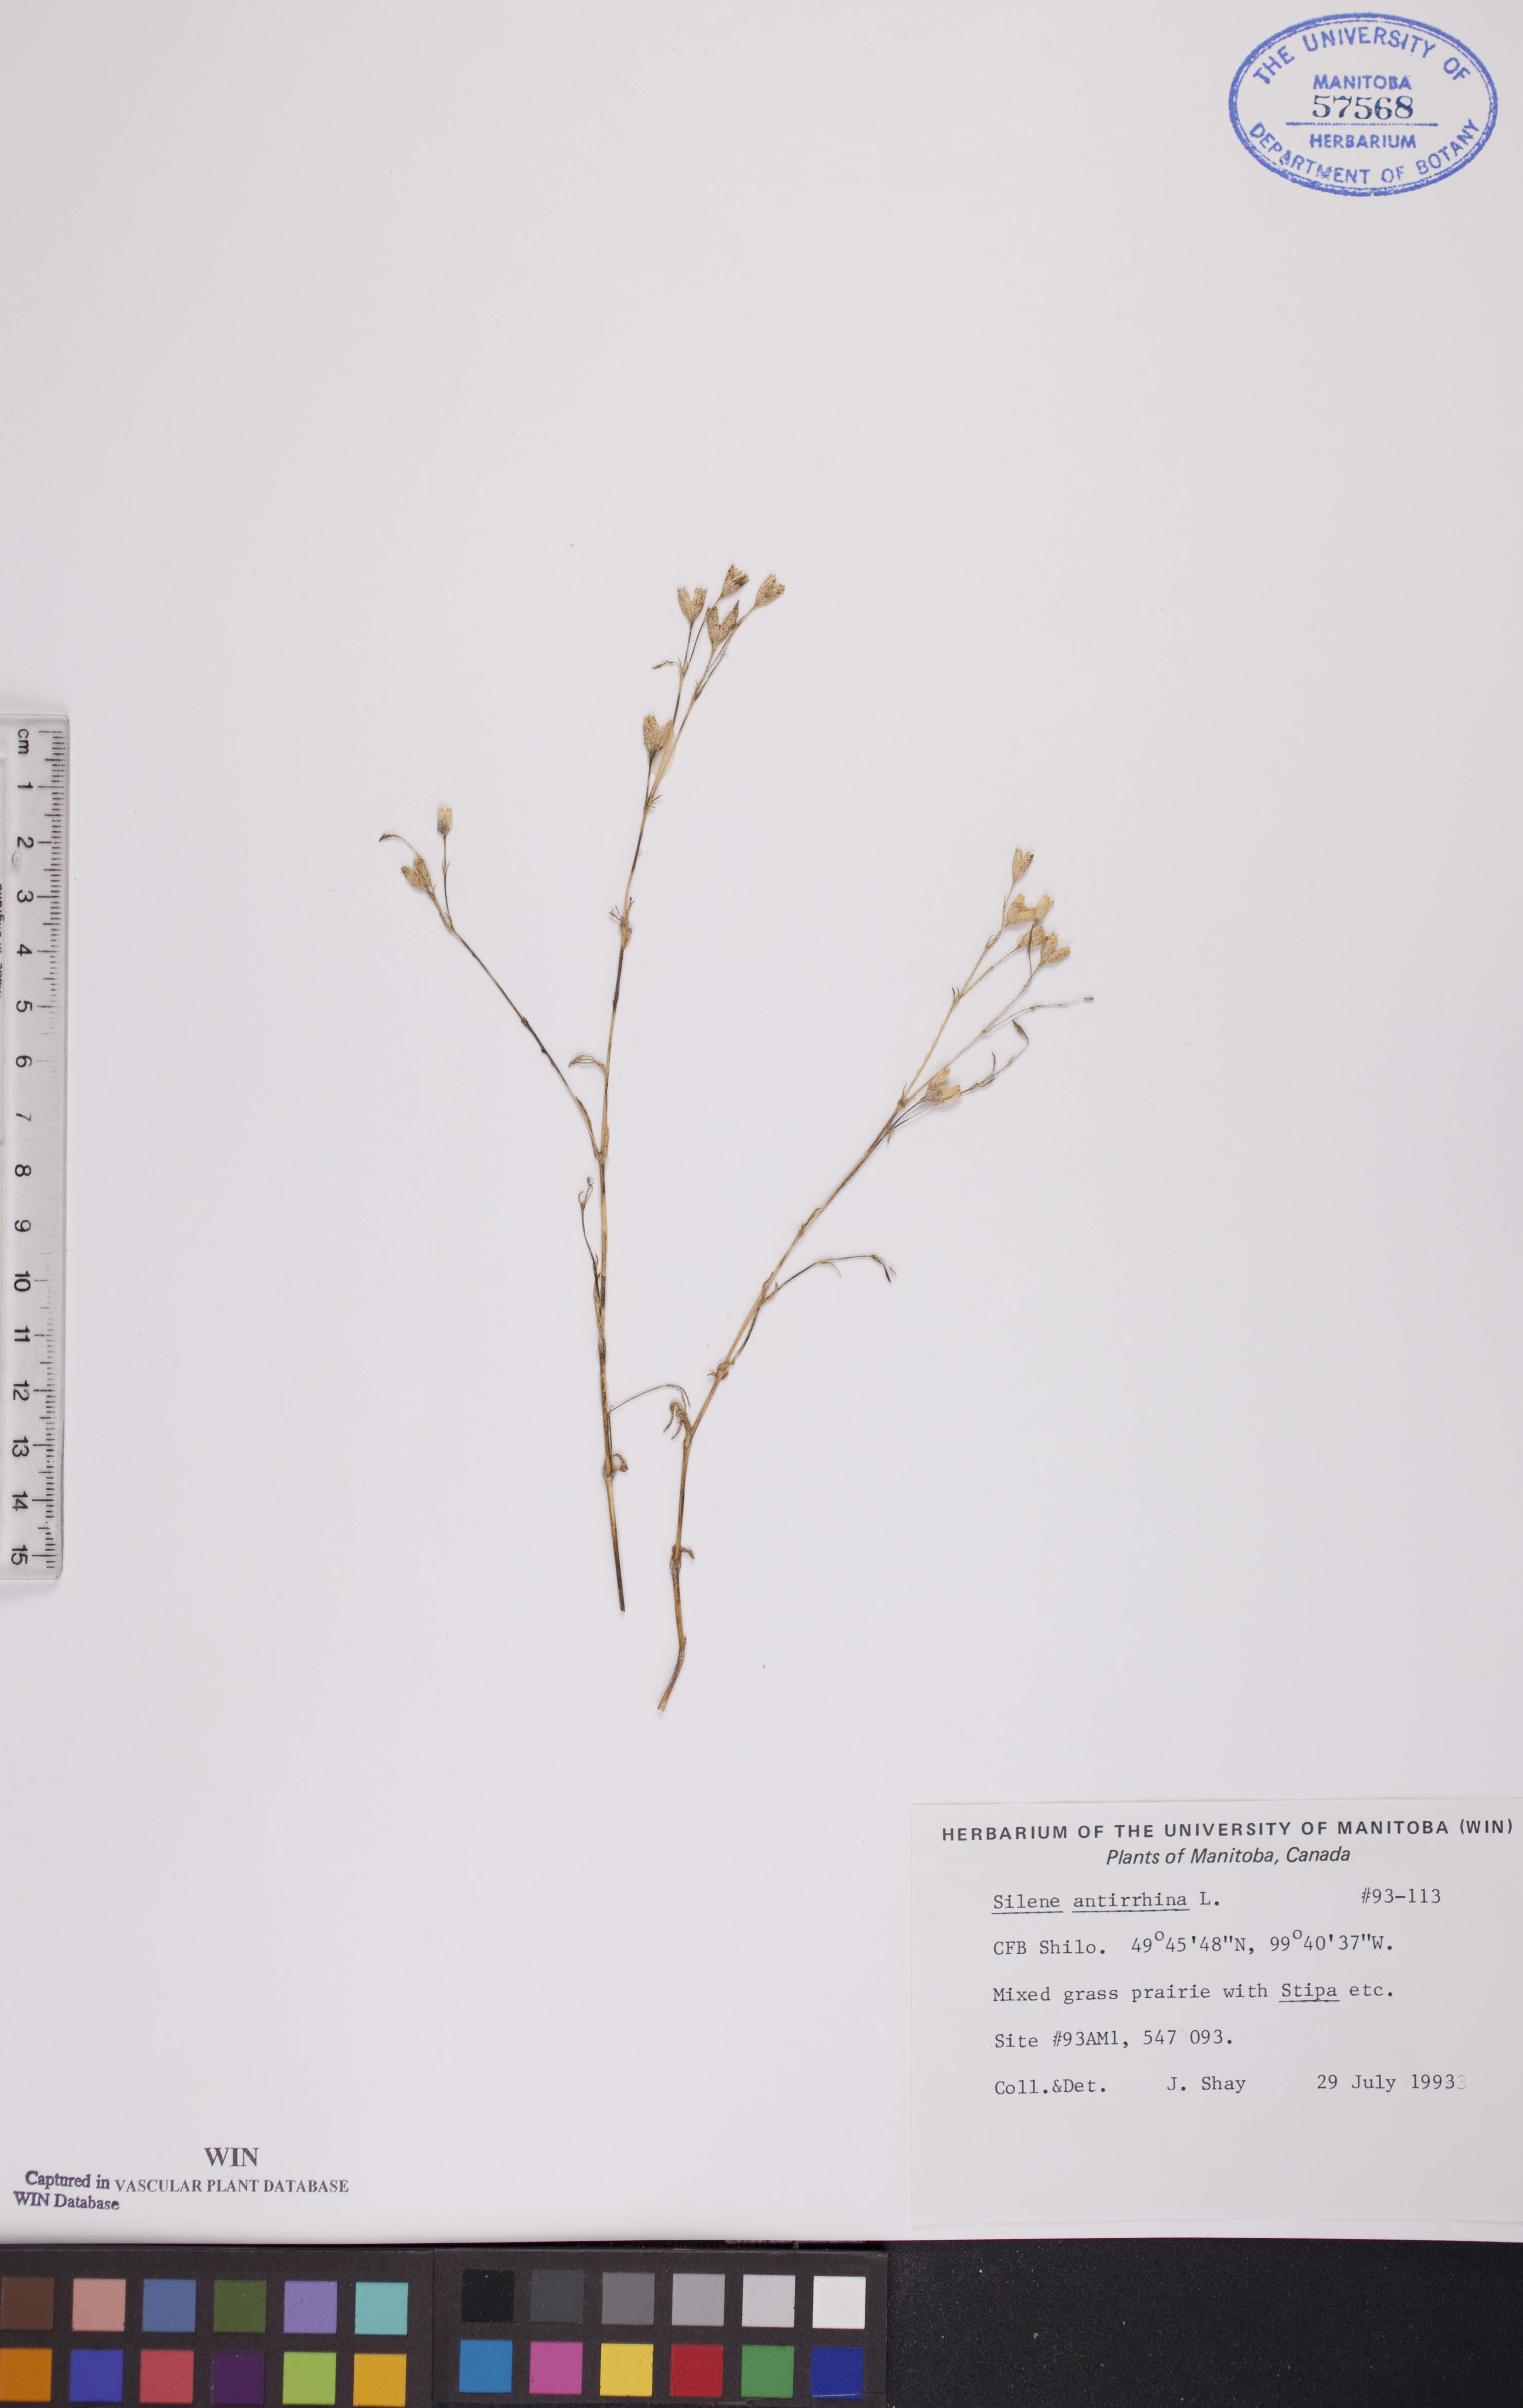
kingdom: Plantae
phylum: Tracheophyta
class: Magnoliopsida
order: Caryophyllales
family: Caryophyllaceae
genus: Silene
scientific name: Silene antirrhina
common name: Sleepy catchfly
